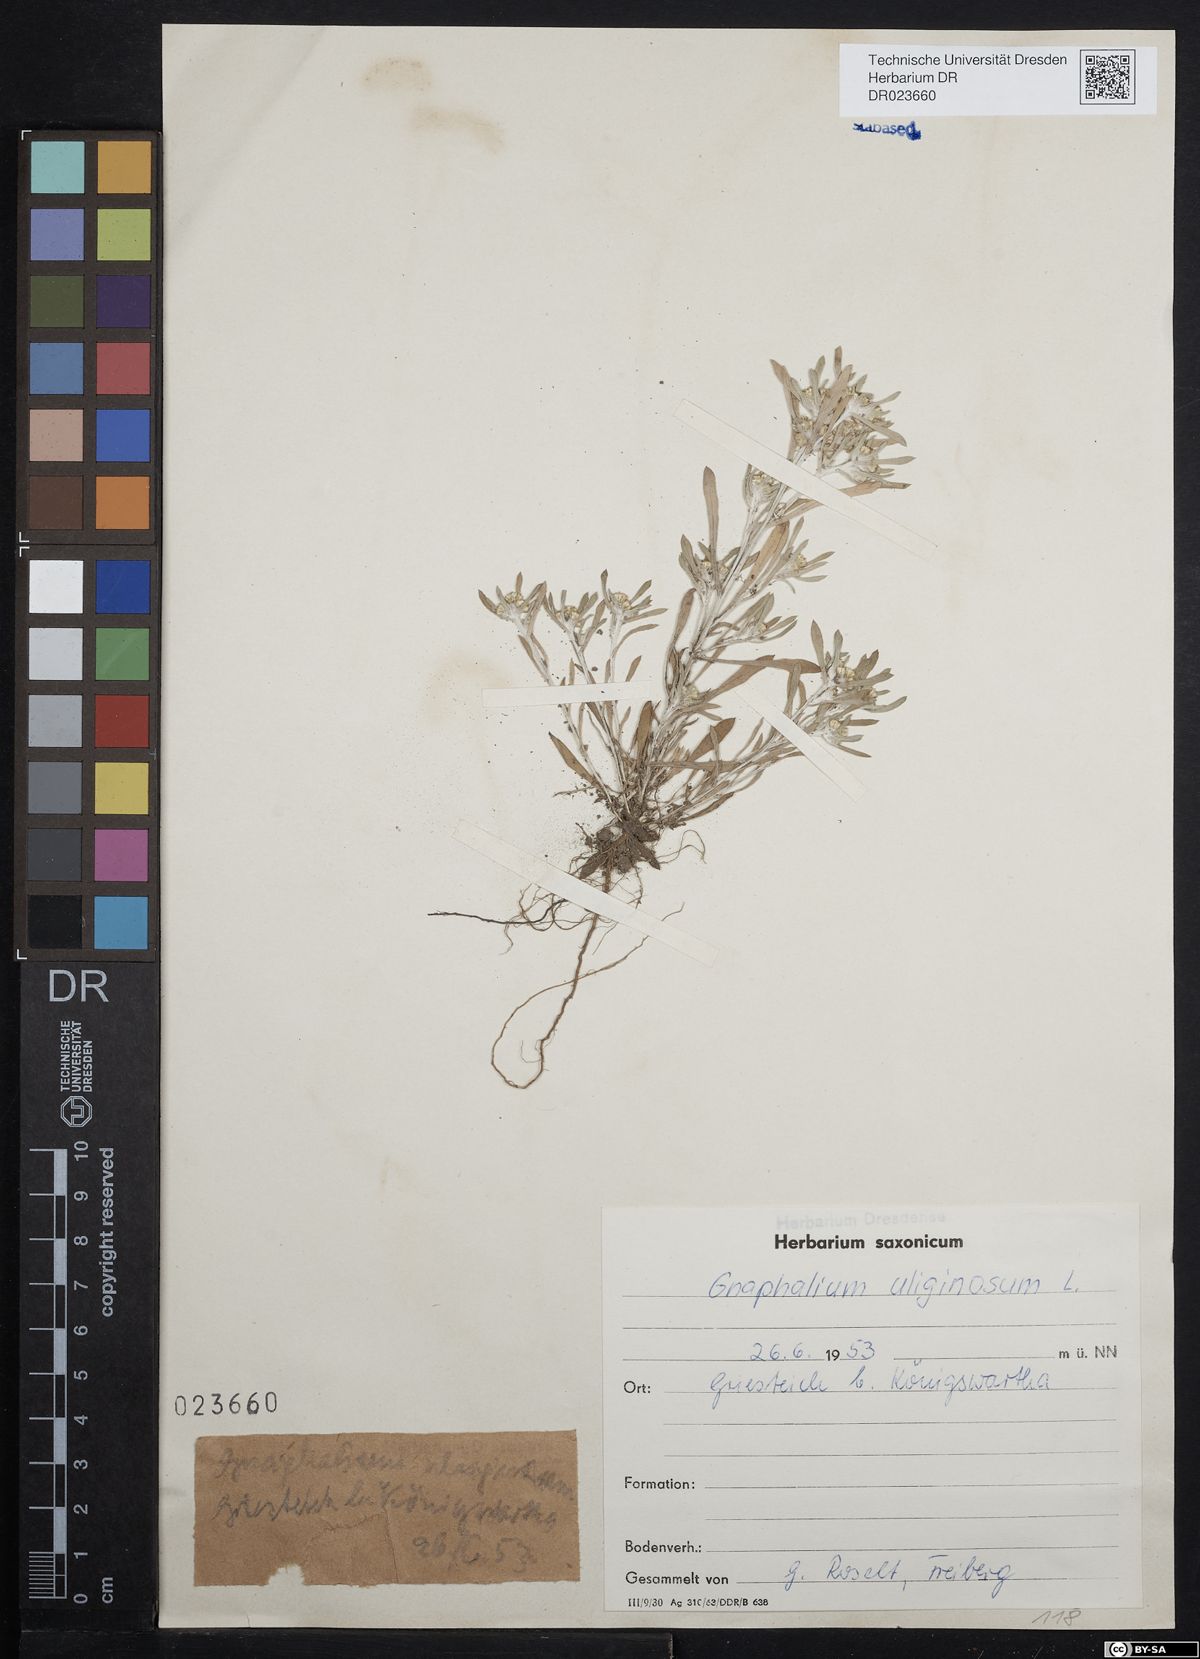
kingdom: Plantae
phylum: Tracheophyta
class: Magnoliopsida
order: Asterales
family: Asteraceae
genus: Gnaphalium
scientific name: Gnaphalium uliginosum
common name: Marsh cudweed
